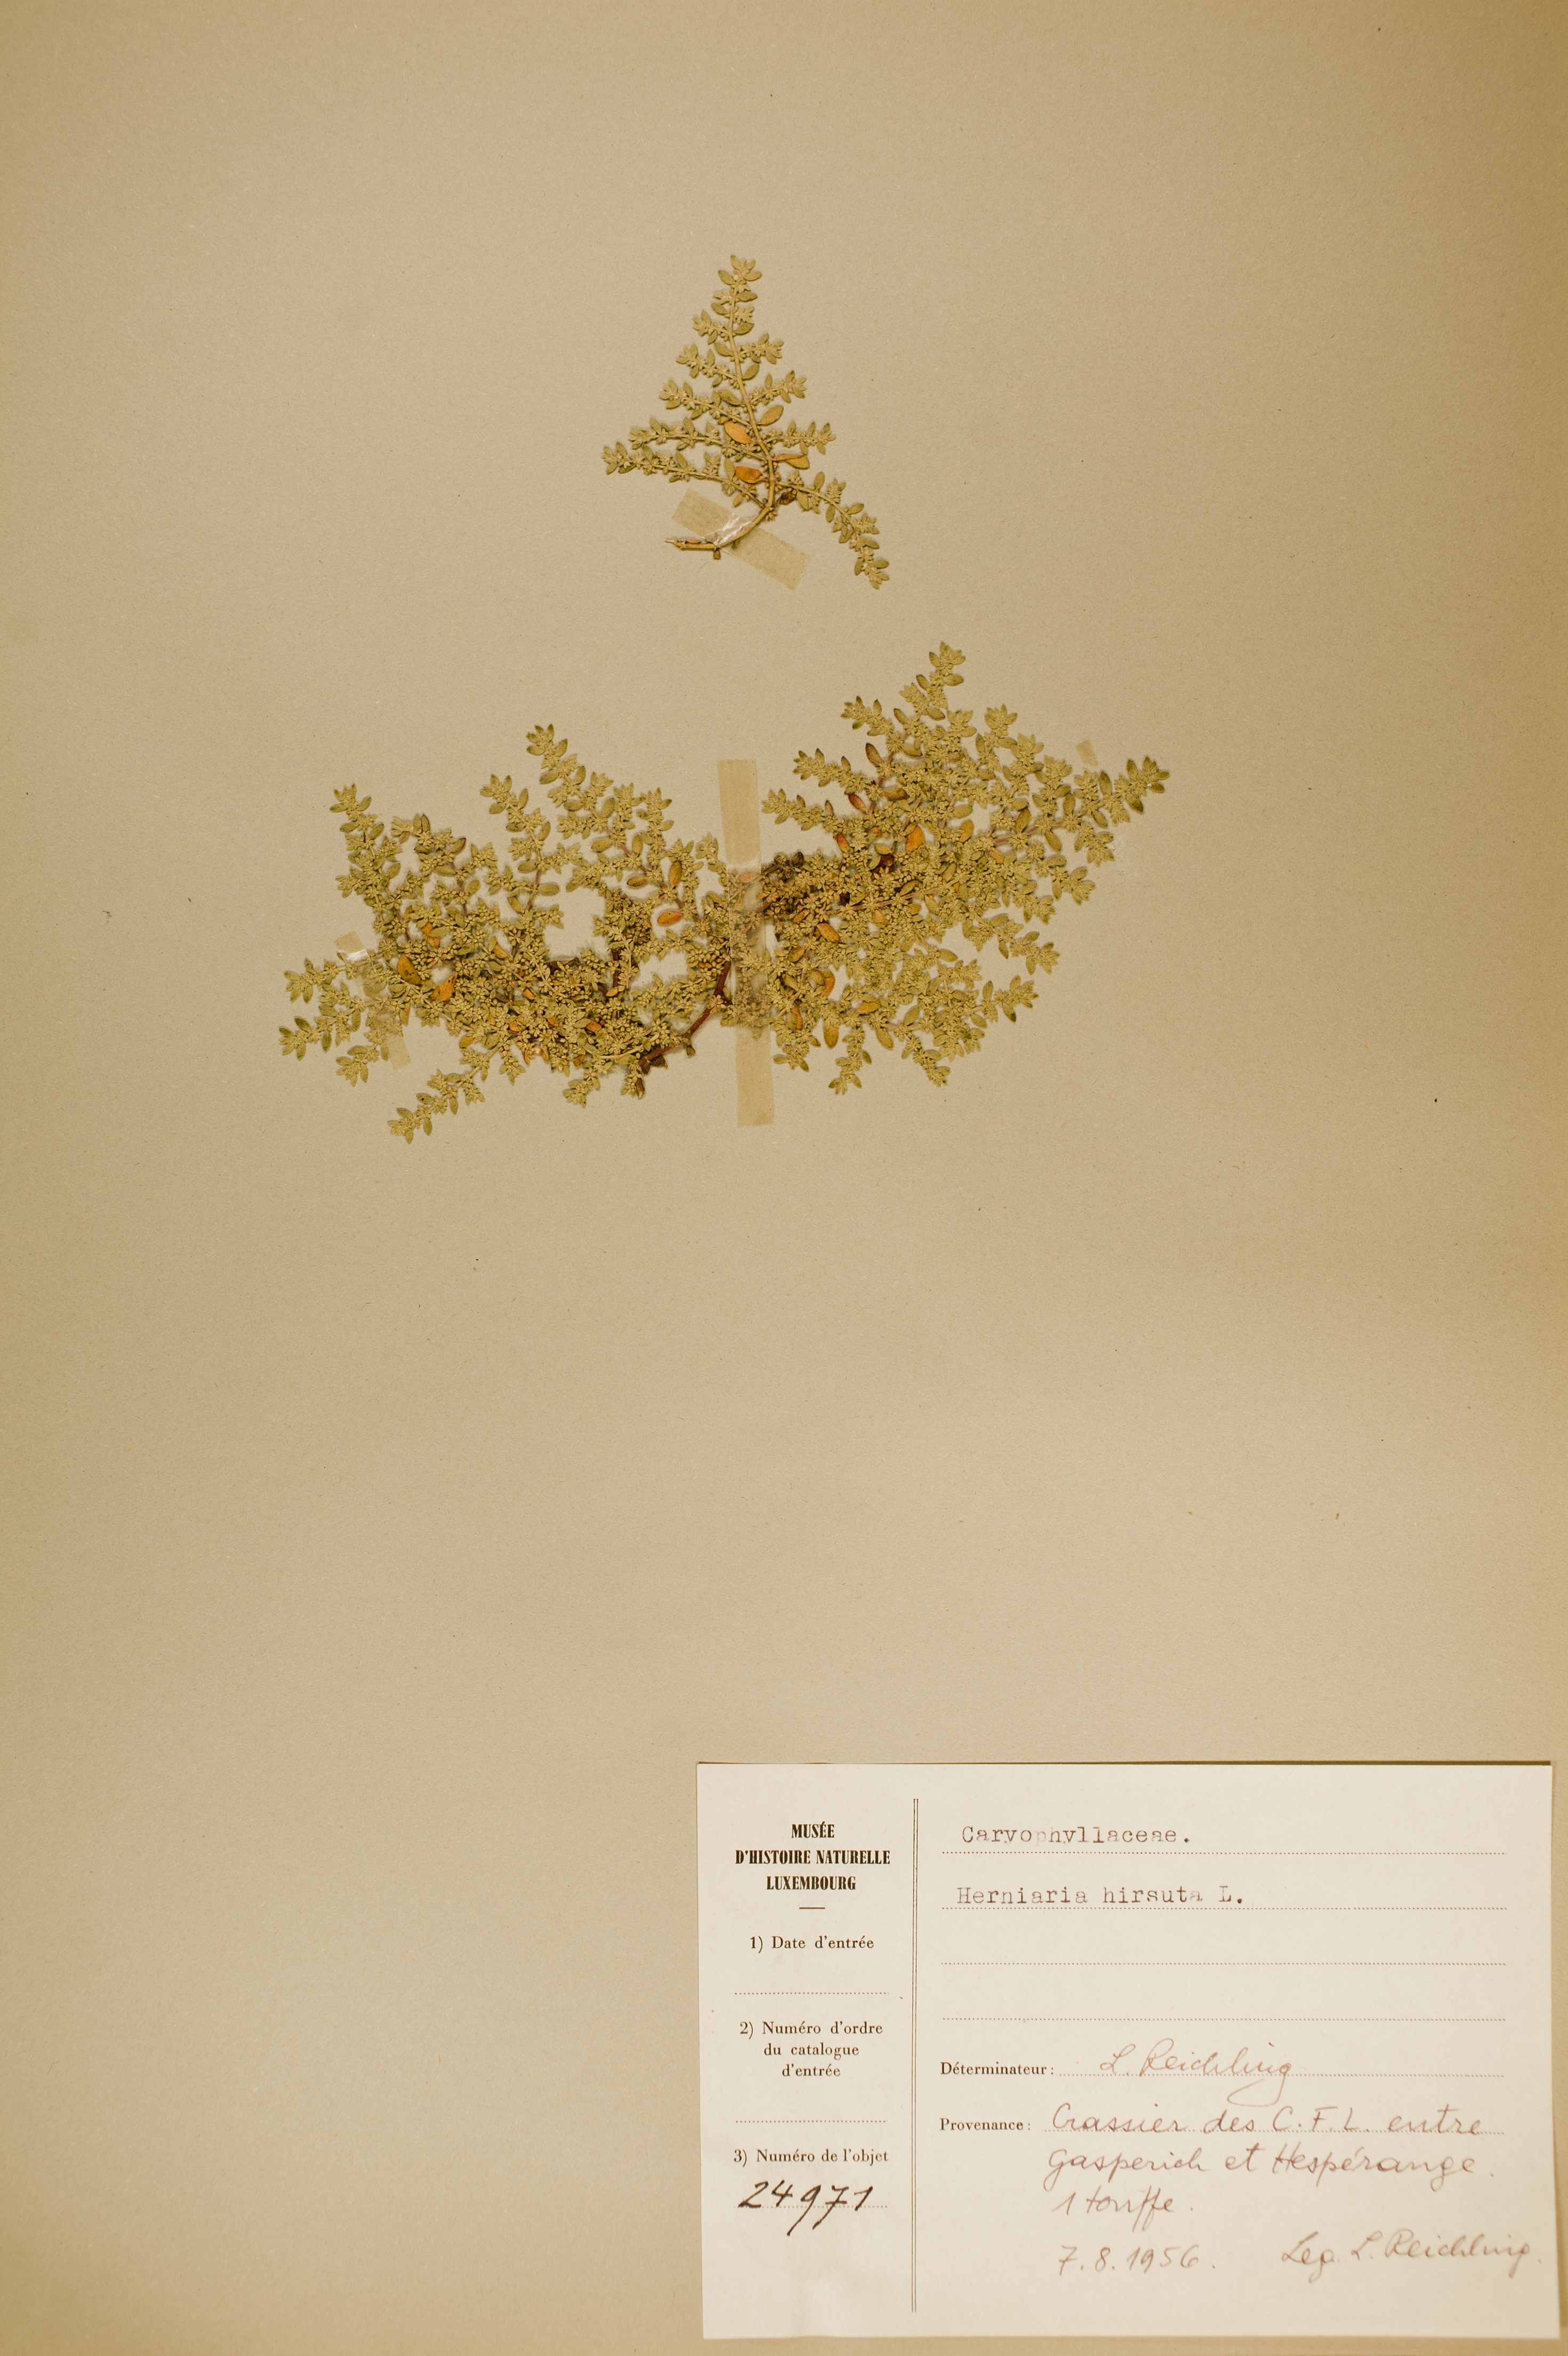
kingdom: Plantae
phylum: Tracheophyta
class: Magnoliopsida
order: Caryophyllales
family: Caryophyllaceae
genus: Herniaria
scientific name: Herniaria hirsuta
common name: Hairy rupturewort
